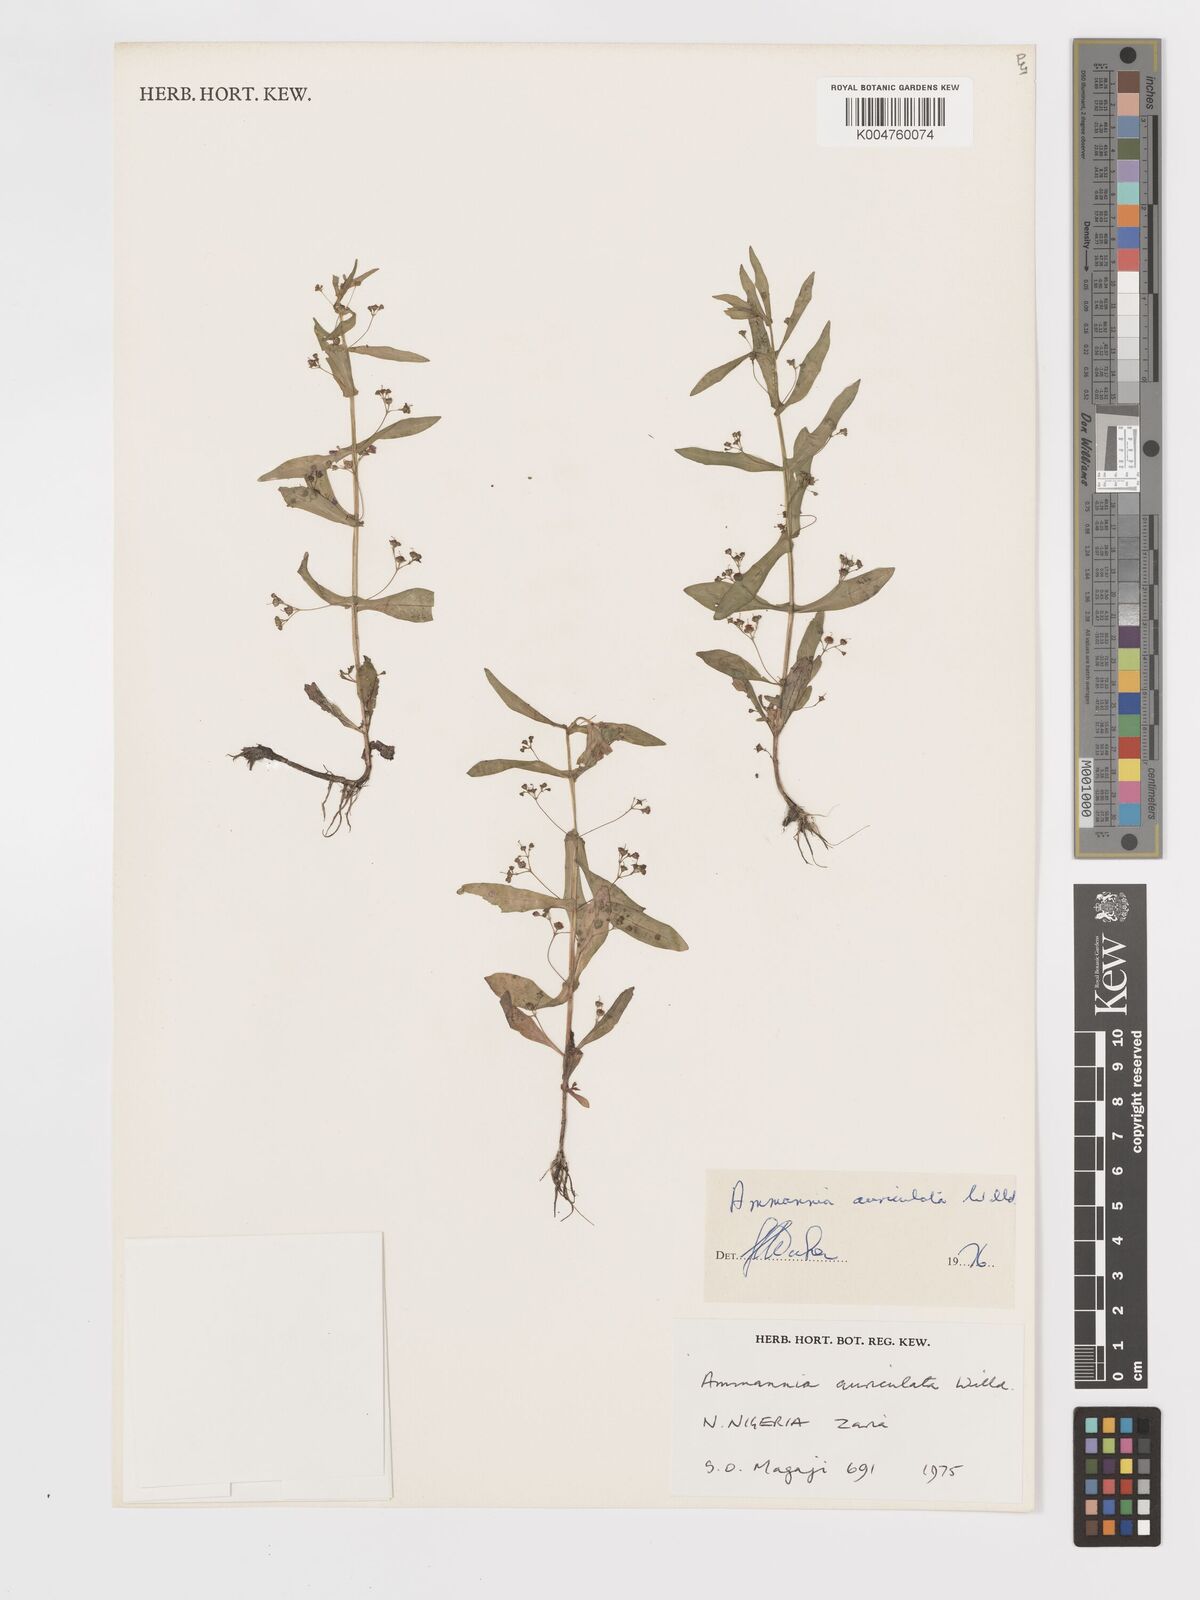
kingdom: Plantae
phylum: Tracheophyta
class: Magnoliopsida
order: Myrtales
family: Lythraceae
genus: Ammannia
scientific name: Ammannia auriculata
